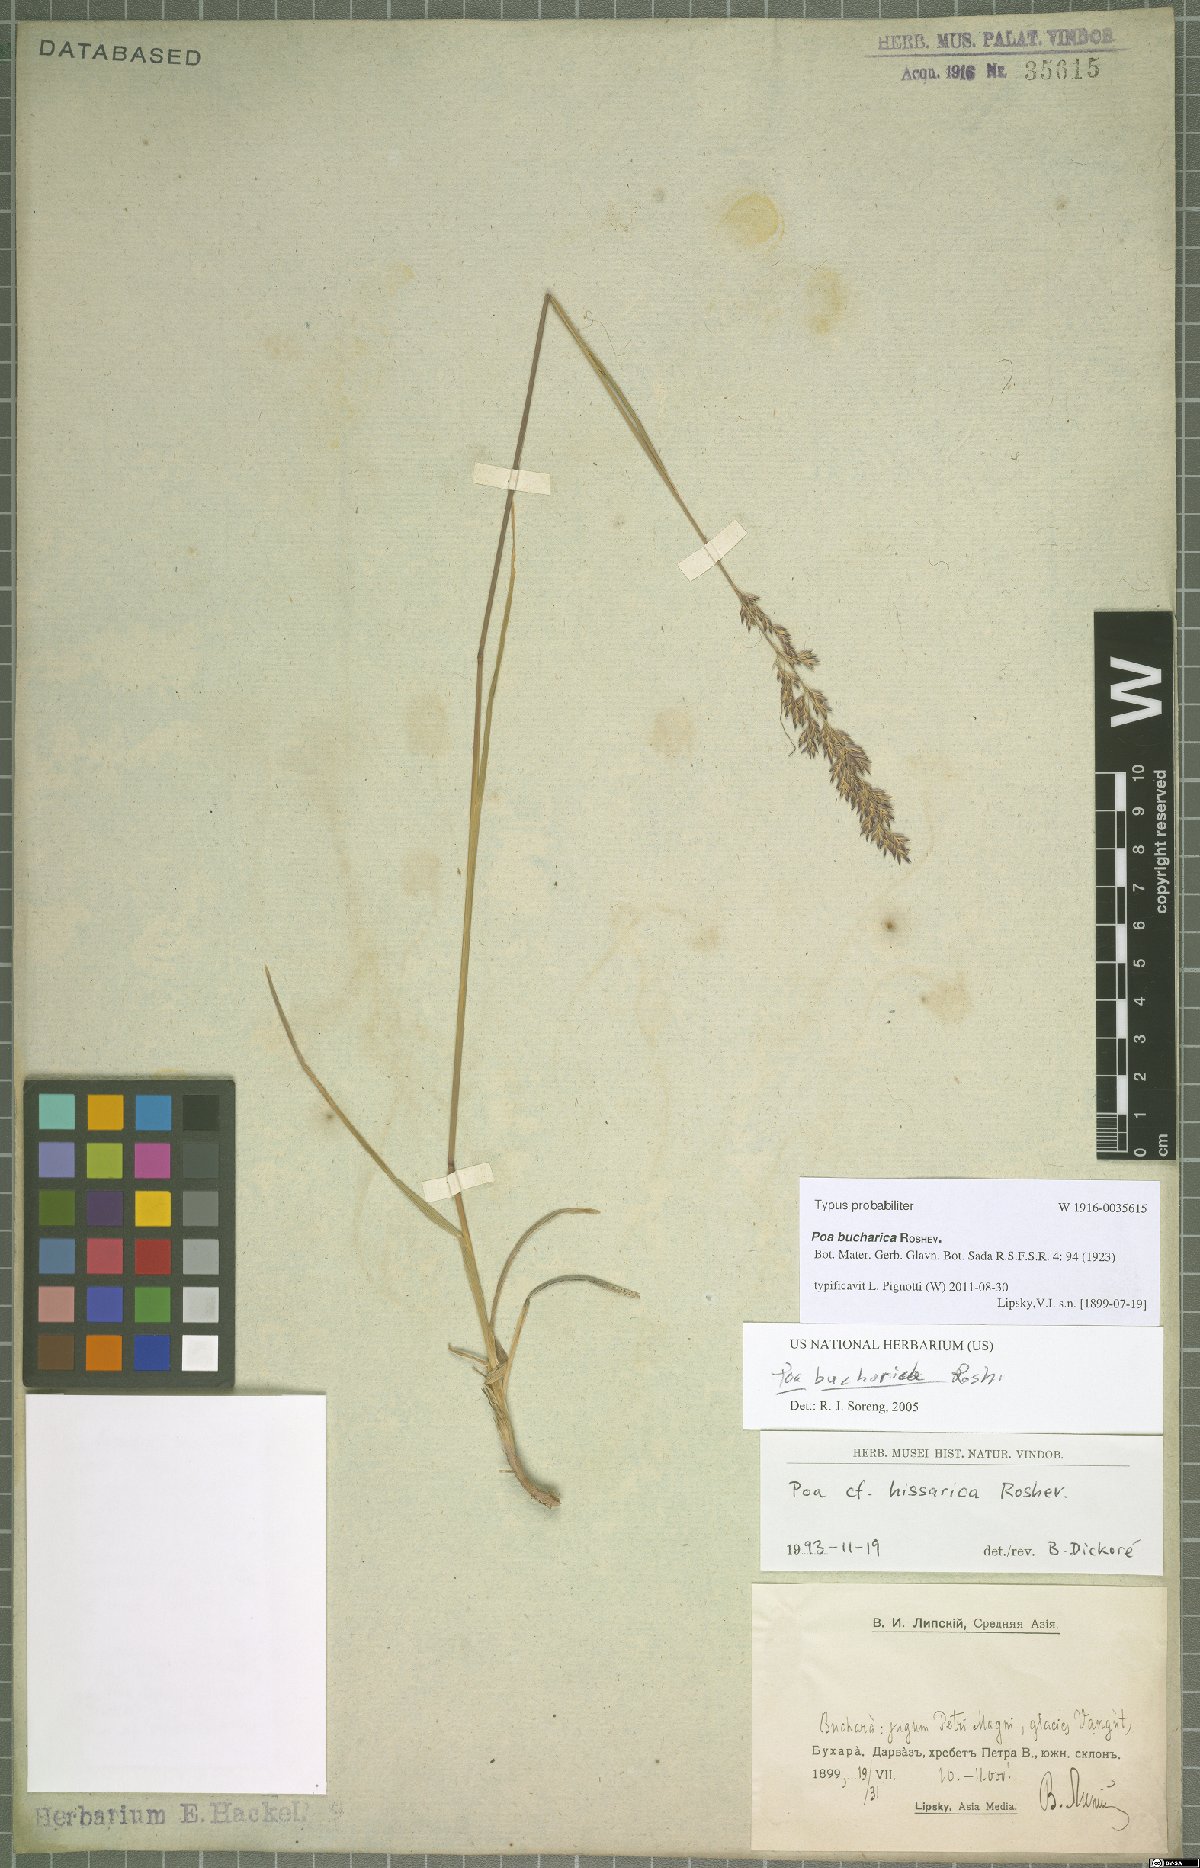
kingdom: Plantae
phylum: Tracheophyta
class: Liliopsida
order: Poales
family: Poaceae
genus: Poa
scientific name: Poa bucharica
